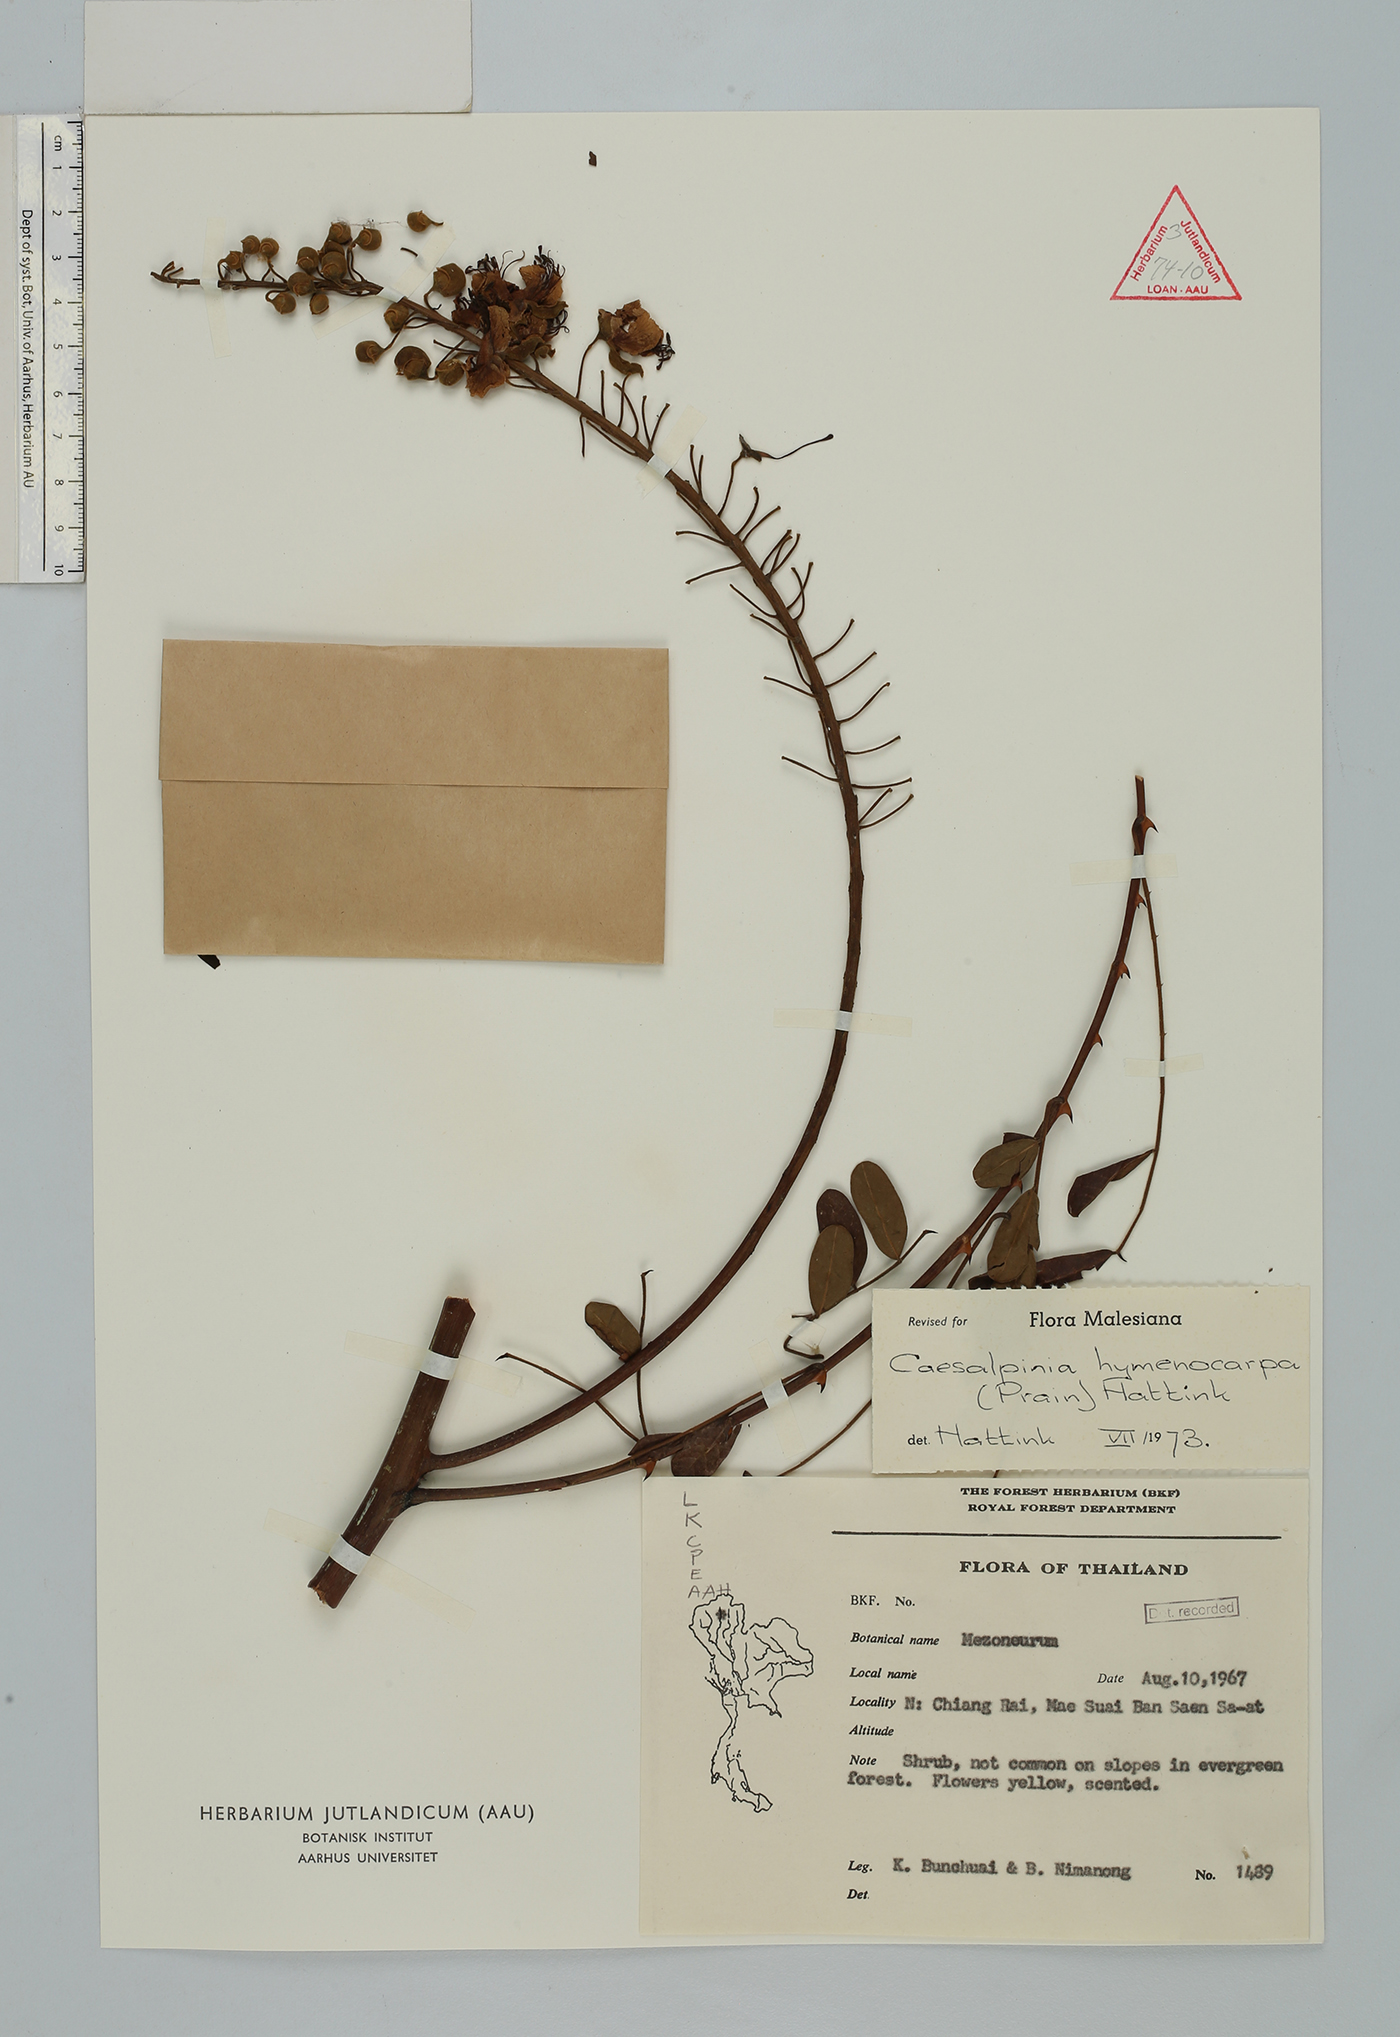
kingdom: Plantae
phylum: Tracheophyta
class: Magnoliopsida
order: Fabales
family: Fabaceae
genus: Mezoneuron
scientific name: Mezoneuron hymenocarpum
